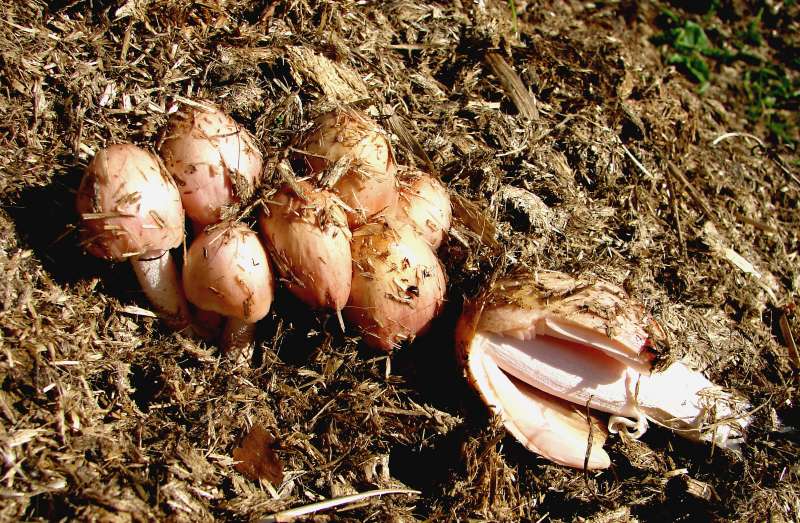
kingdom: Fungi
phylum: Basidiomycota
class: Agaricomycetes
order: Agaricales
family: Bolbitiaceae
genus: Bolbitius
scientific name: Bolbitius coprophilus
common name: rosa gulhat
